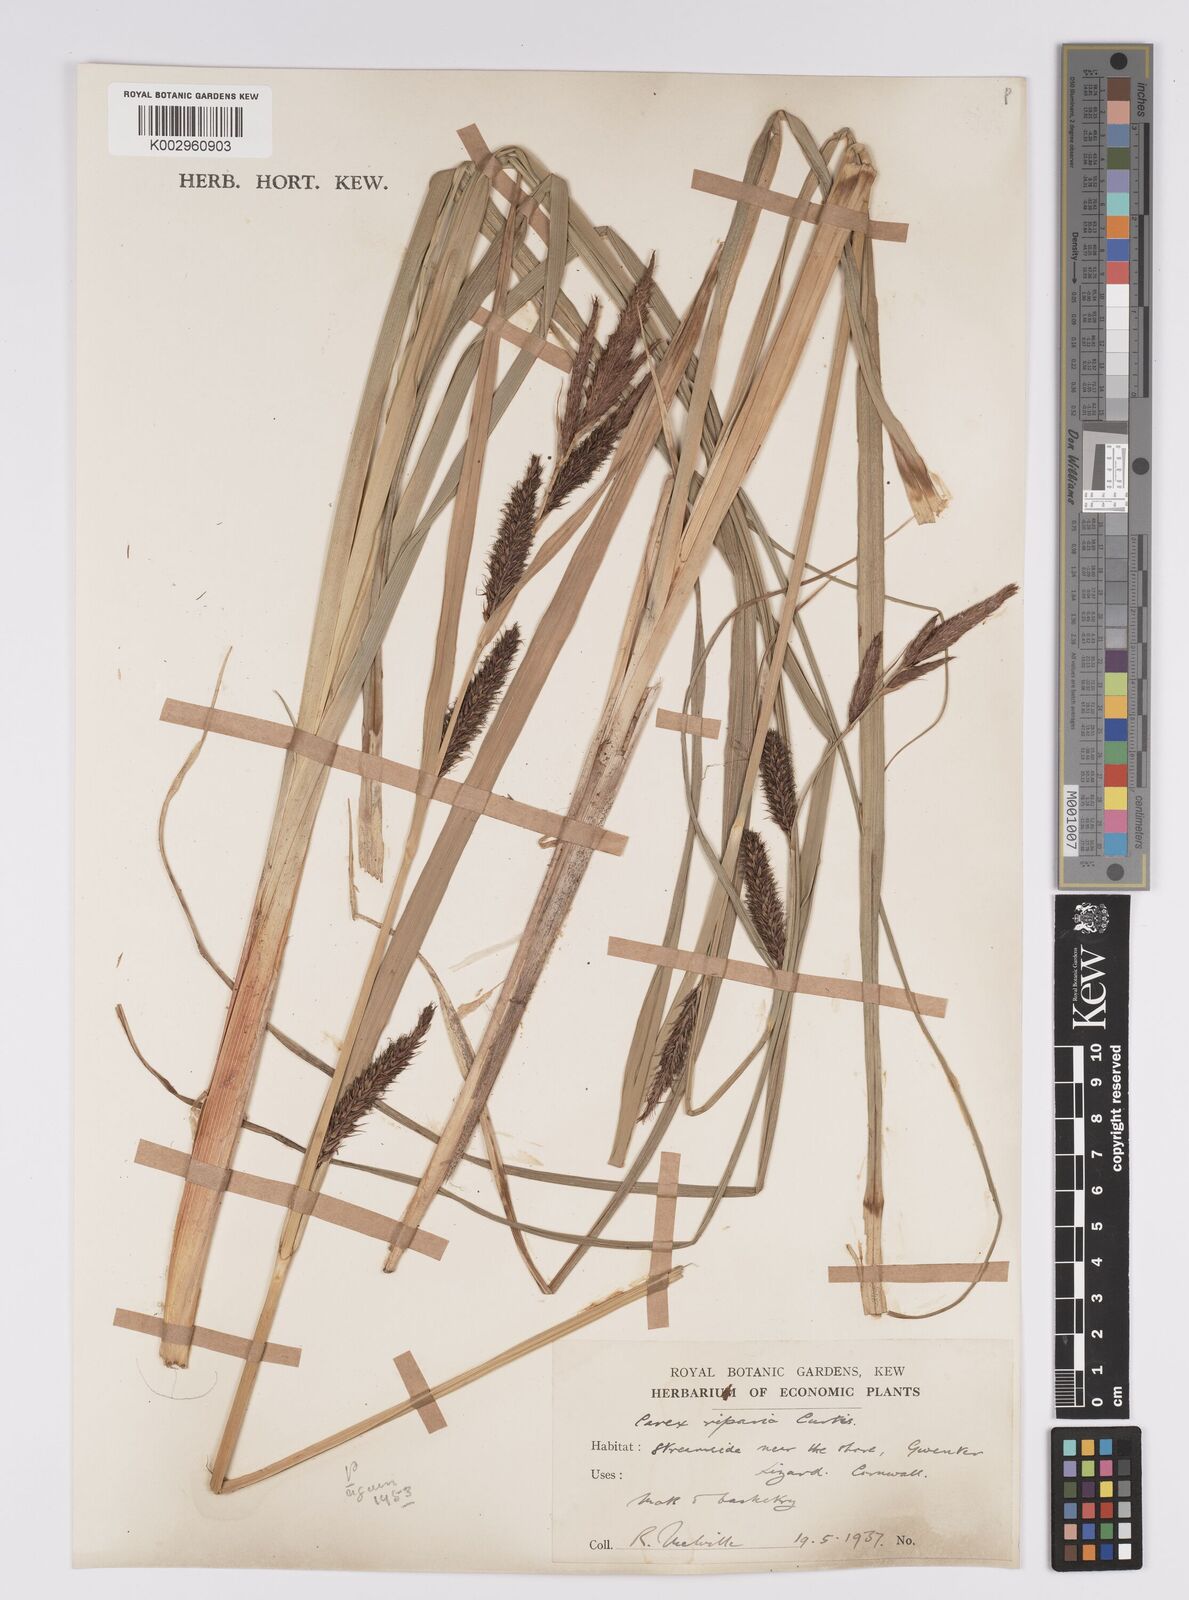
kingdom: Plantae
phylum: Tracheophyta
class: Liliopsida
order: Poales
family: Cyperaceae
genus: Carex
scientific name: Carex riparia
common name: Greater pond-sedge
